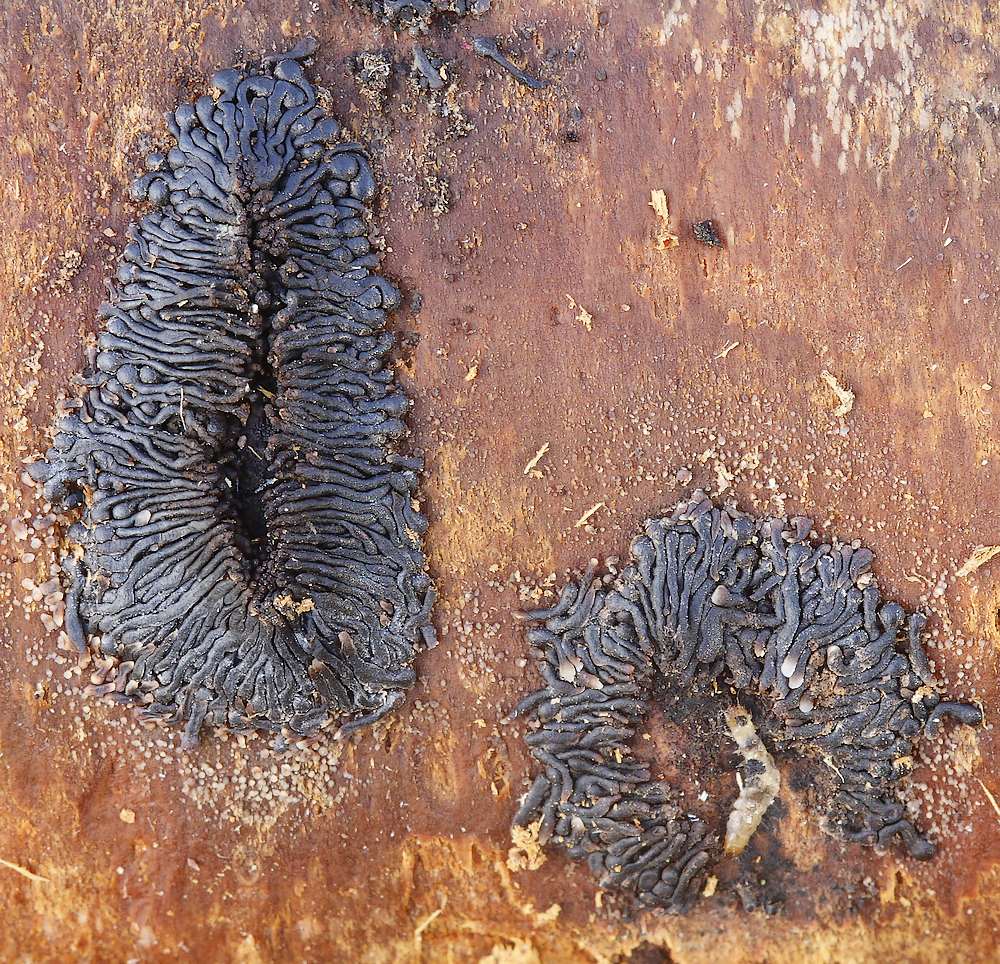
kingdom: Fungi
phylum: Ascomycota
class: Sordariomycetes
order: Calosphaeriales
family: Calosphaeriaceae
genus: Calosphaeria
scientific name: Calosphaeria pulchella
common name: smuk slyngkerne
